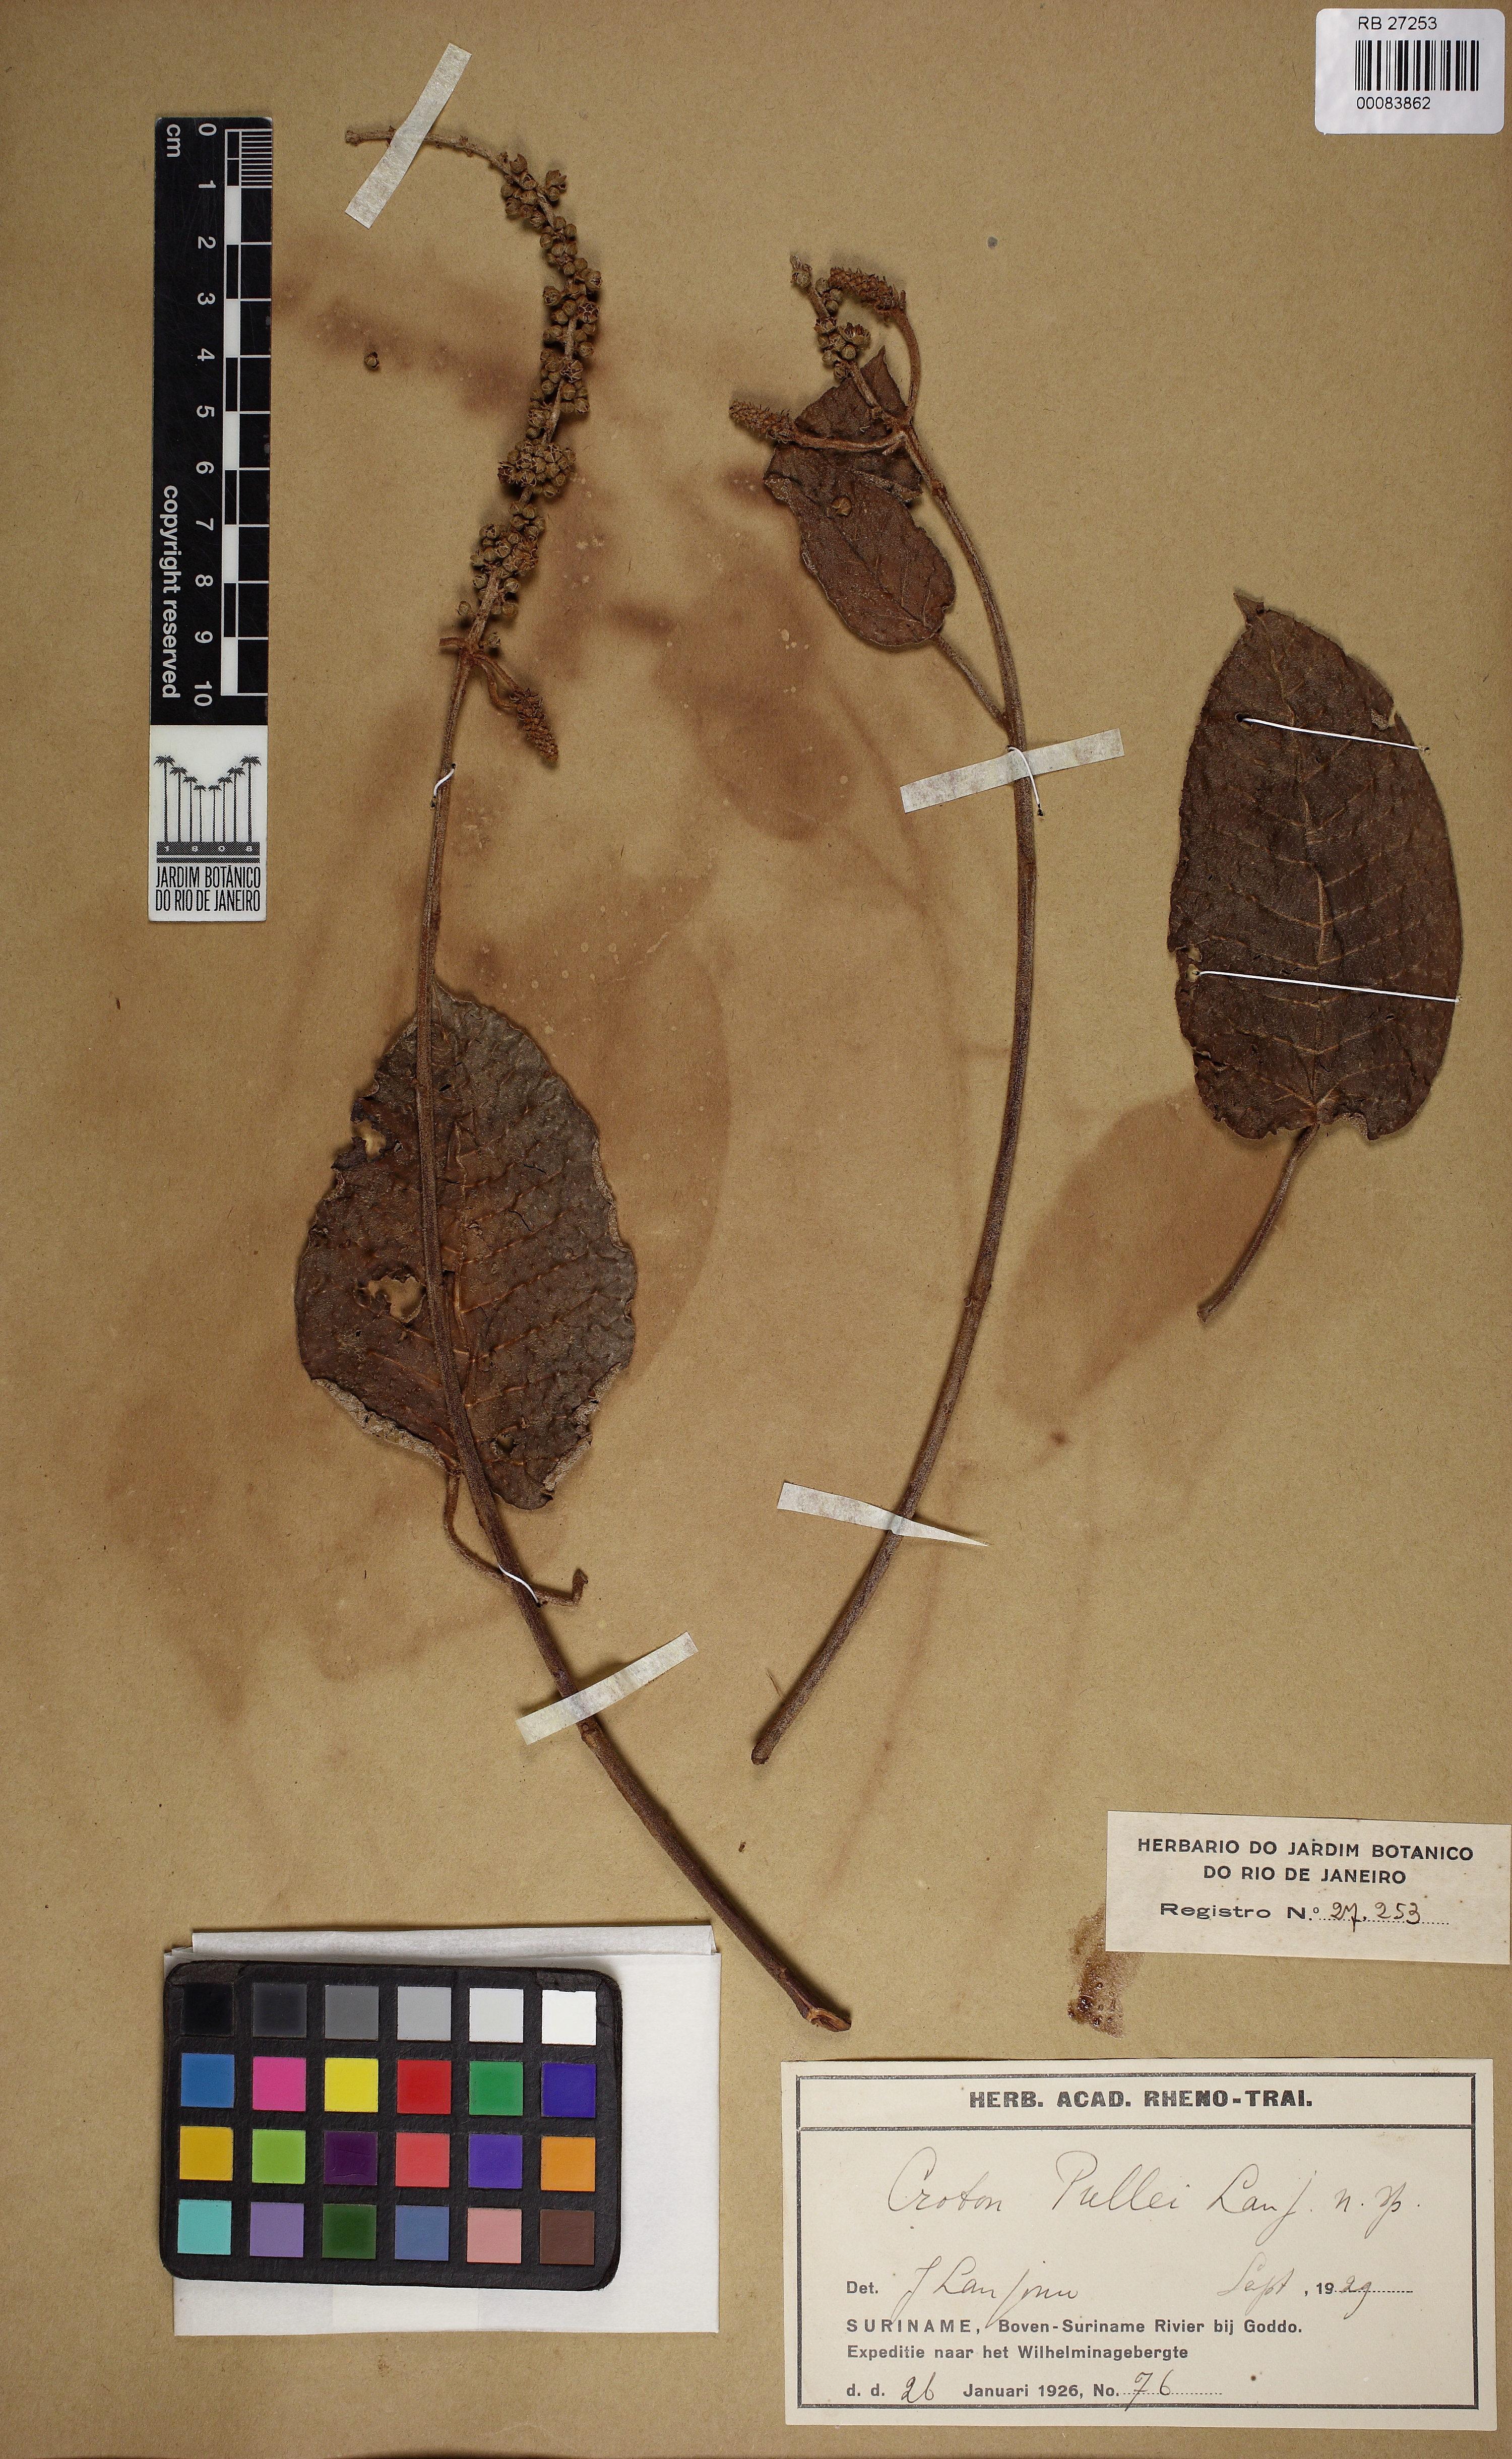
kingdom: Plantae
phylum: Tracheophyta
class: Magnoliopsida
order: Malpighiales
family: Euphorbiaceae
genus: Croton
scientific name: Croton pullei
